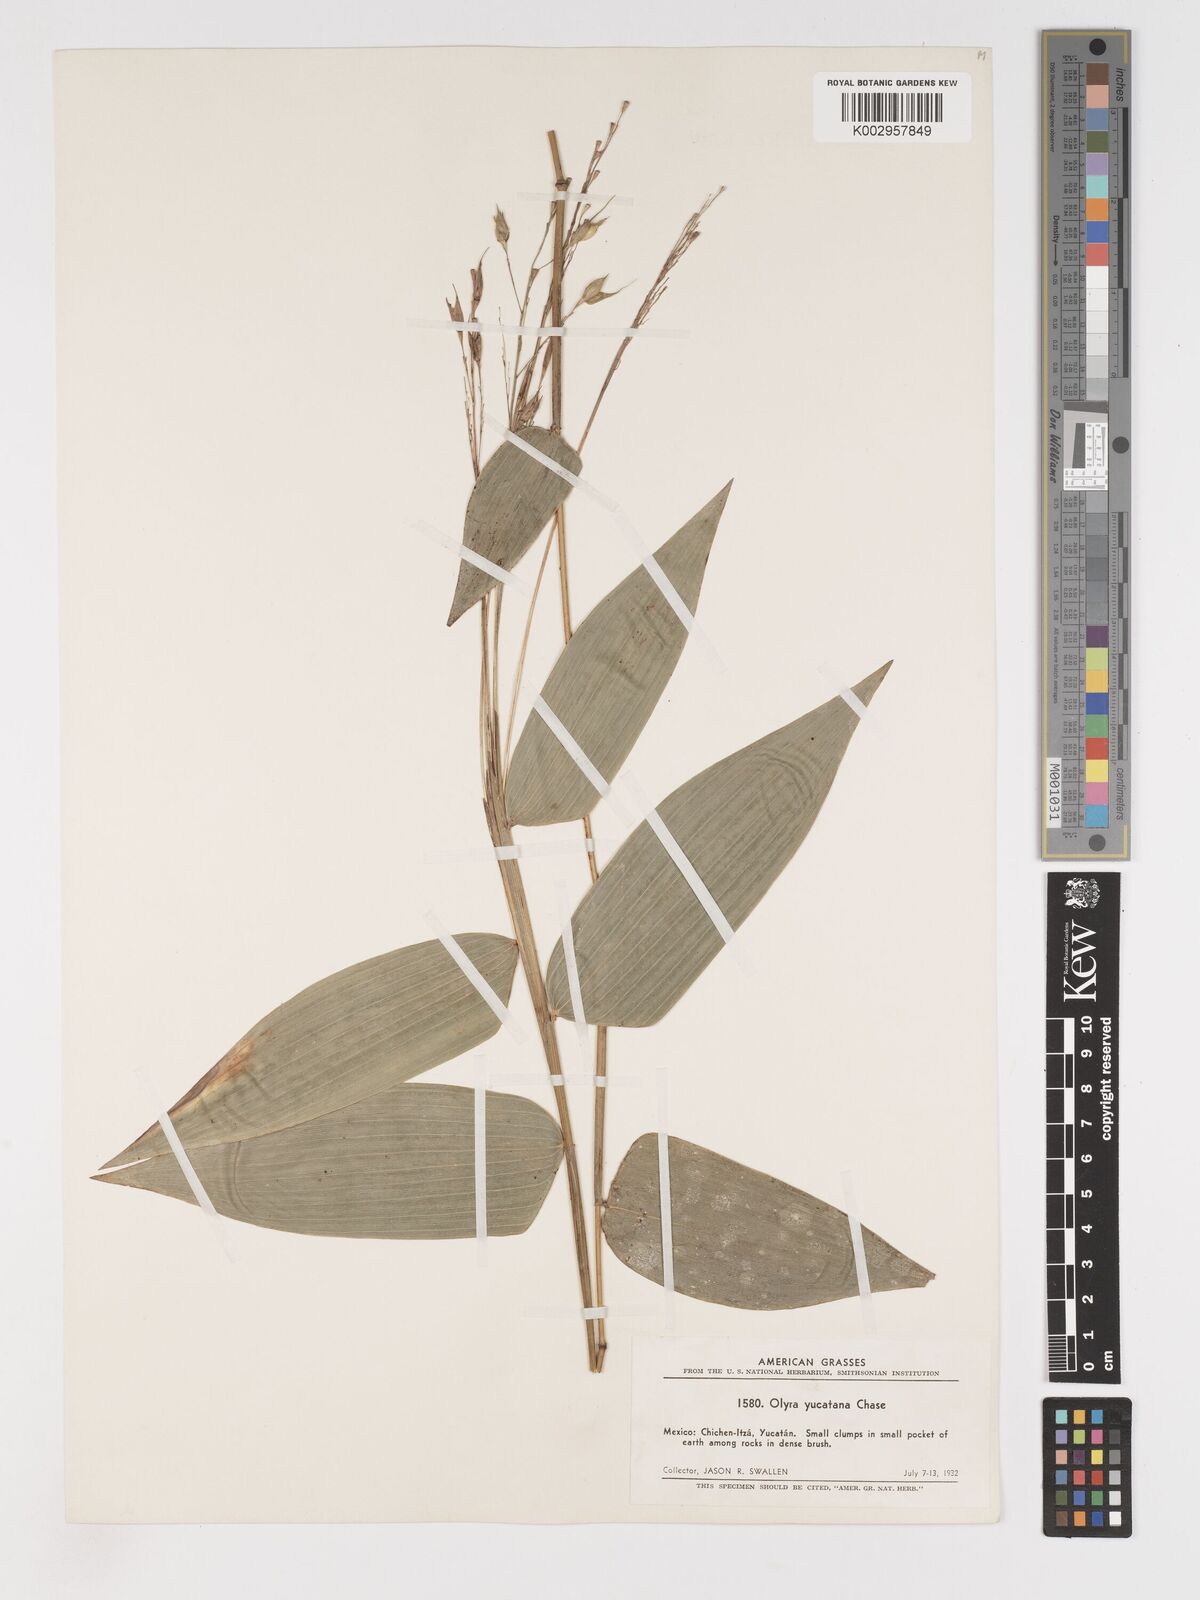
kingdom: Plantae
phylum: Tracheophyta
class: Liliopsida
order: Poales
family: Poaceae
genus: Olyra
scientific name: Olyra glaberrima
